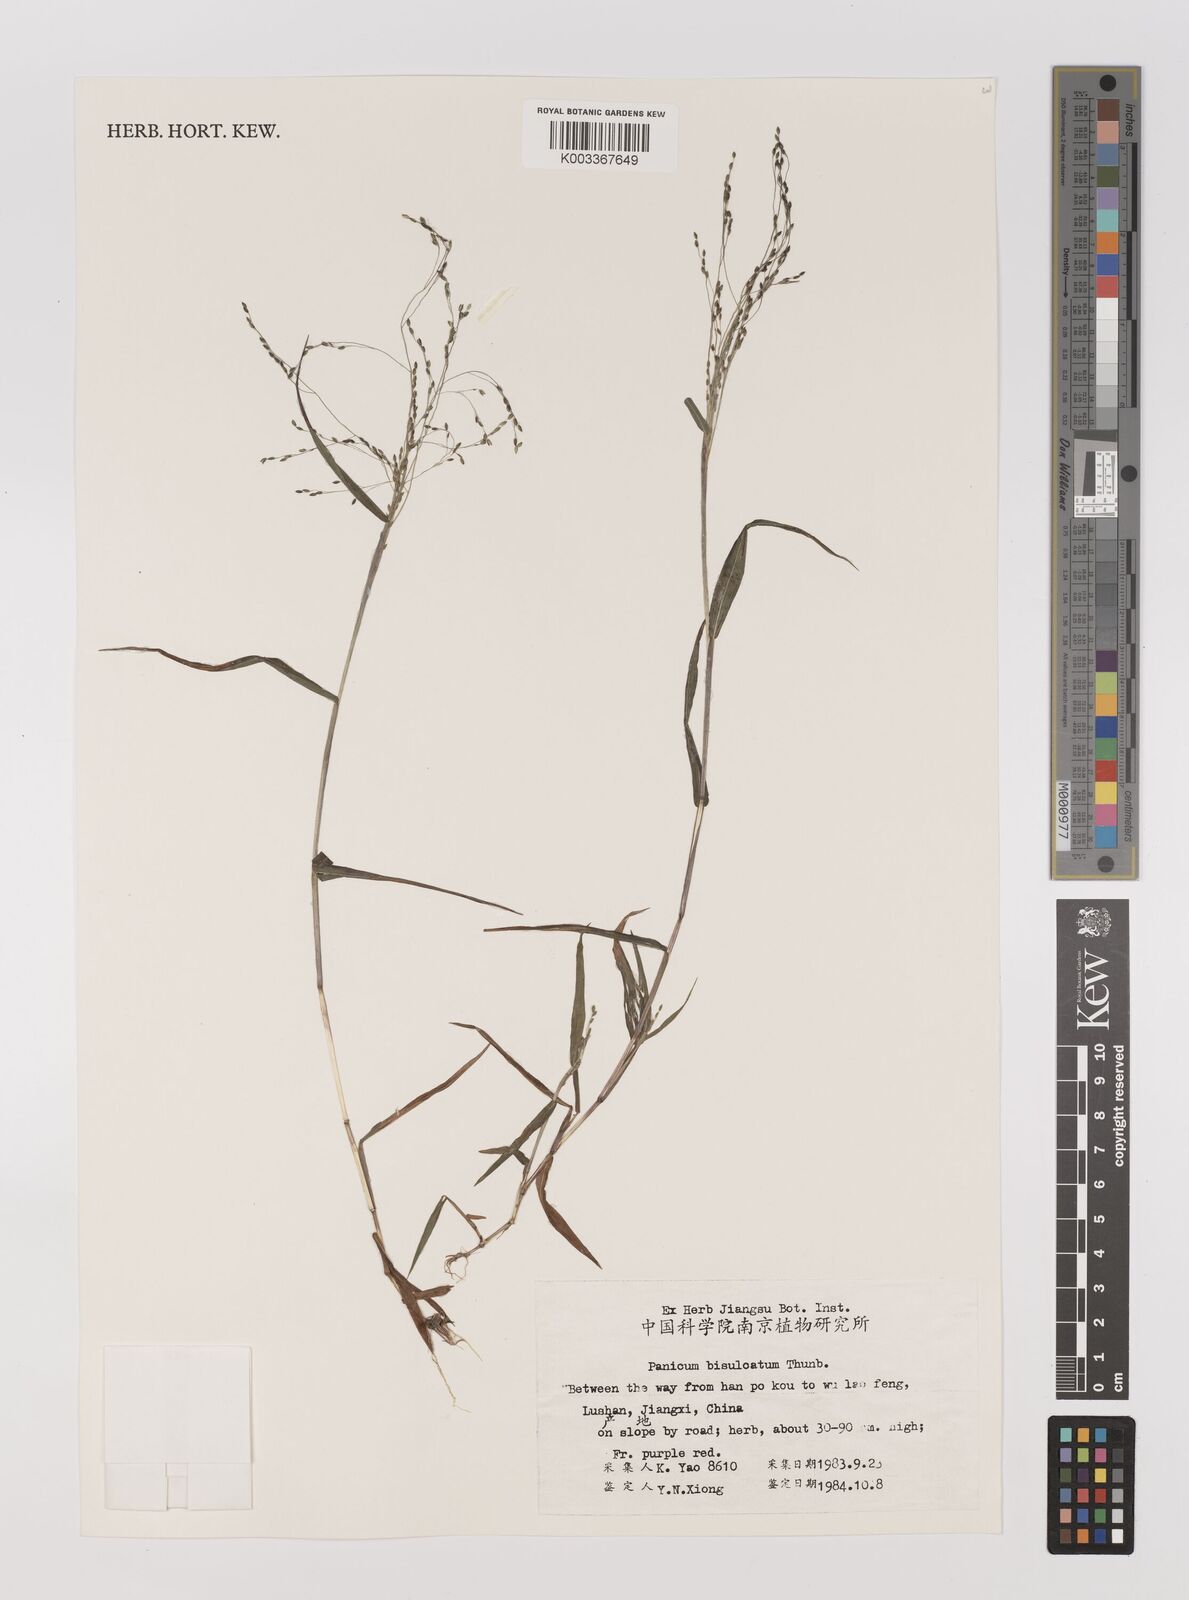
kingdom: Plantae
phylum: Tracheophyta
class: Liliopsida
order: Poales
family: Poaceae
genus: Panicum
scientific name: Panicum bisulcatum
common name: Japanese panicgrass
